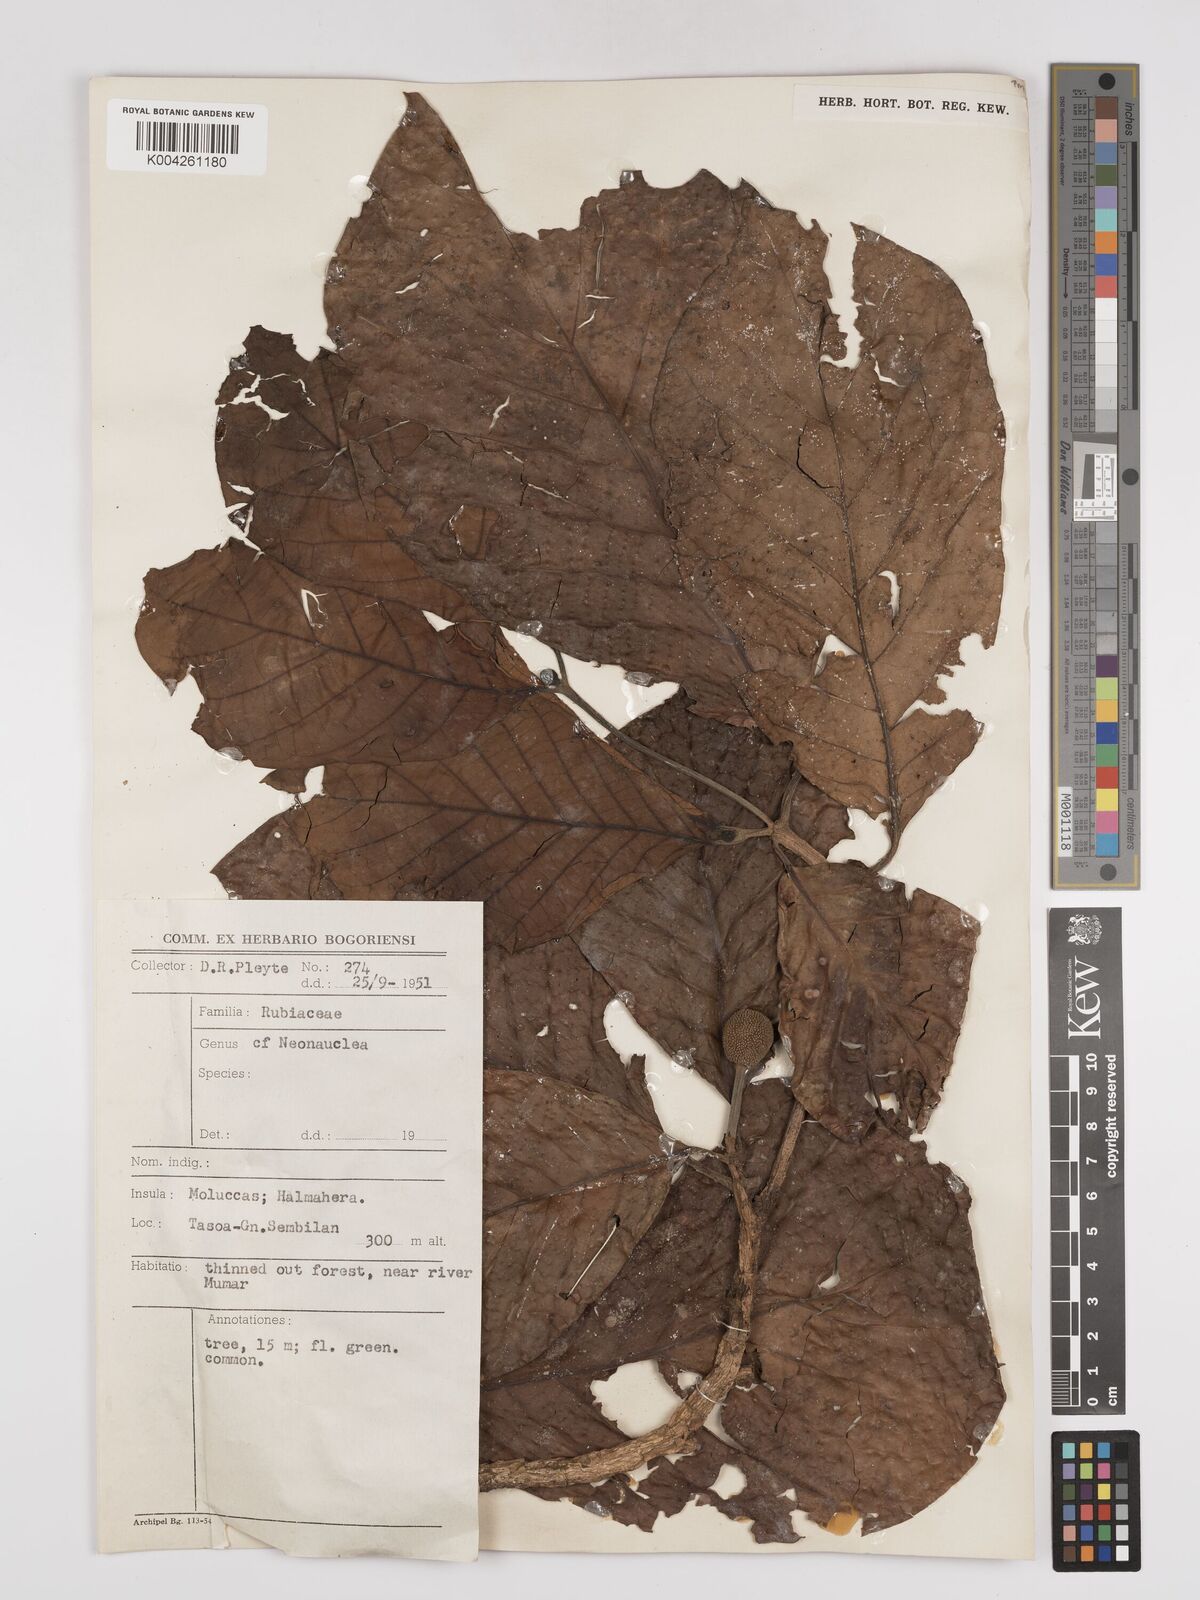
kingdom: Plantae
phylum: Tracheophyta
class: Magnoliopsida
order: Gentianales
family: Rubiaceae
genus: Neonauclea
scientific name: Neonauclea
